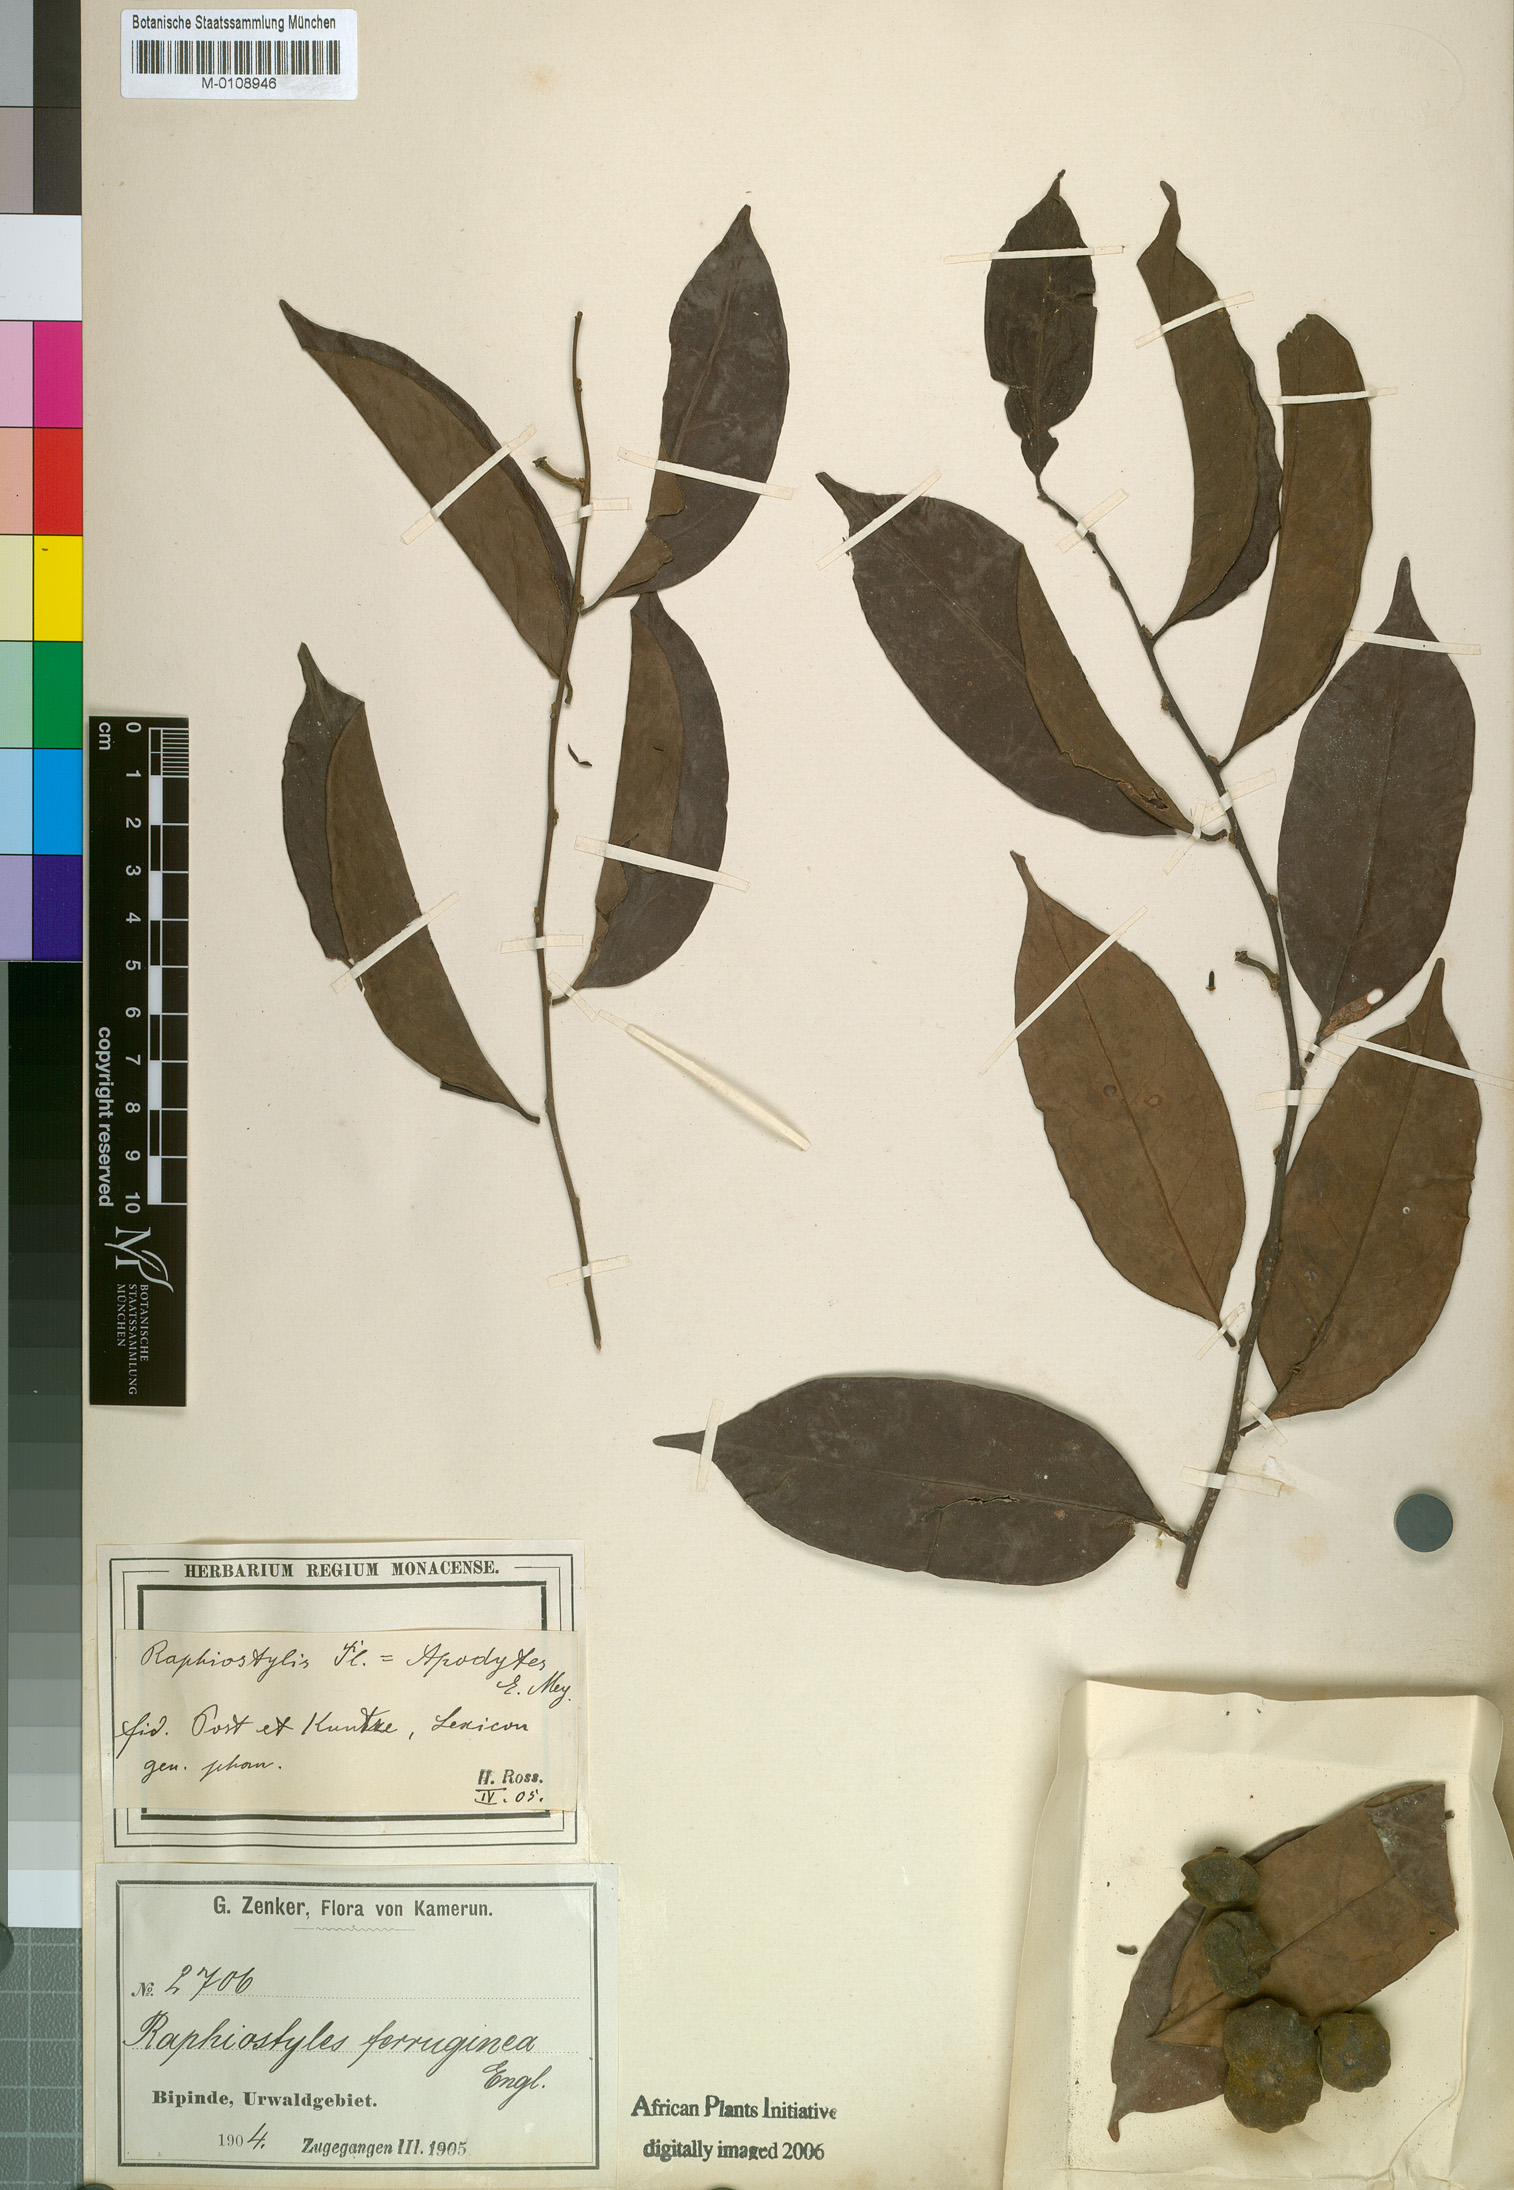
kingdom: Plantae
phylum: Tracheophyta
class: Magnoliopsida
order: Metteniusales
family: Metteniusaceae
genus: Rhaphiostylis
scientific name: Rhaphiostylis ferruginea
